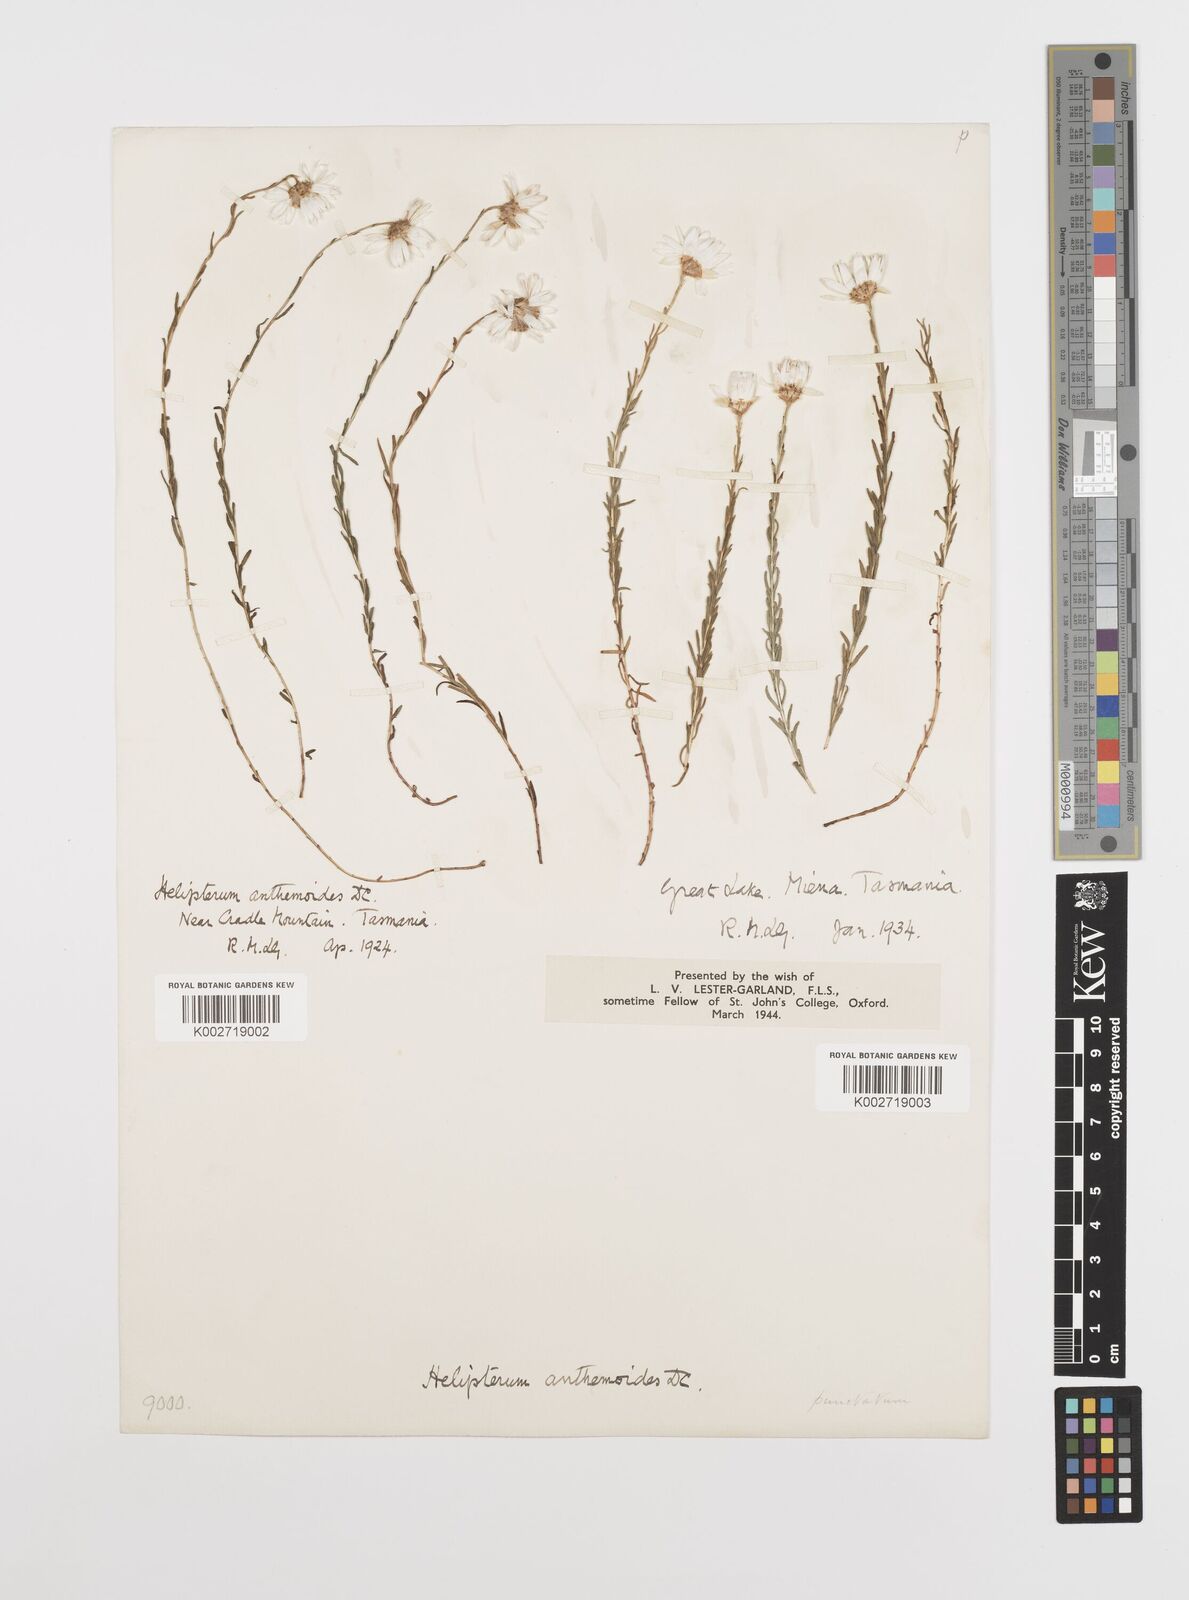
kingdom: Plantae
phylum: Tracheophyta
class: Magnoliopsida
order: Asterales
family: Asteraceae
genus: Rhodanthe
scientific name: Rhodanthe anthemoides
